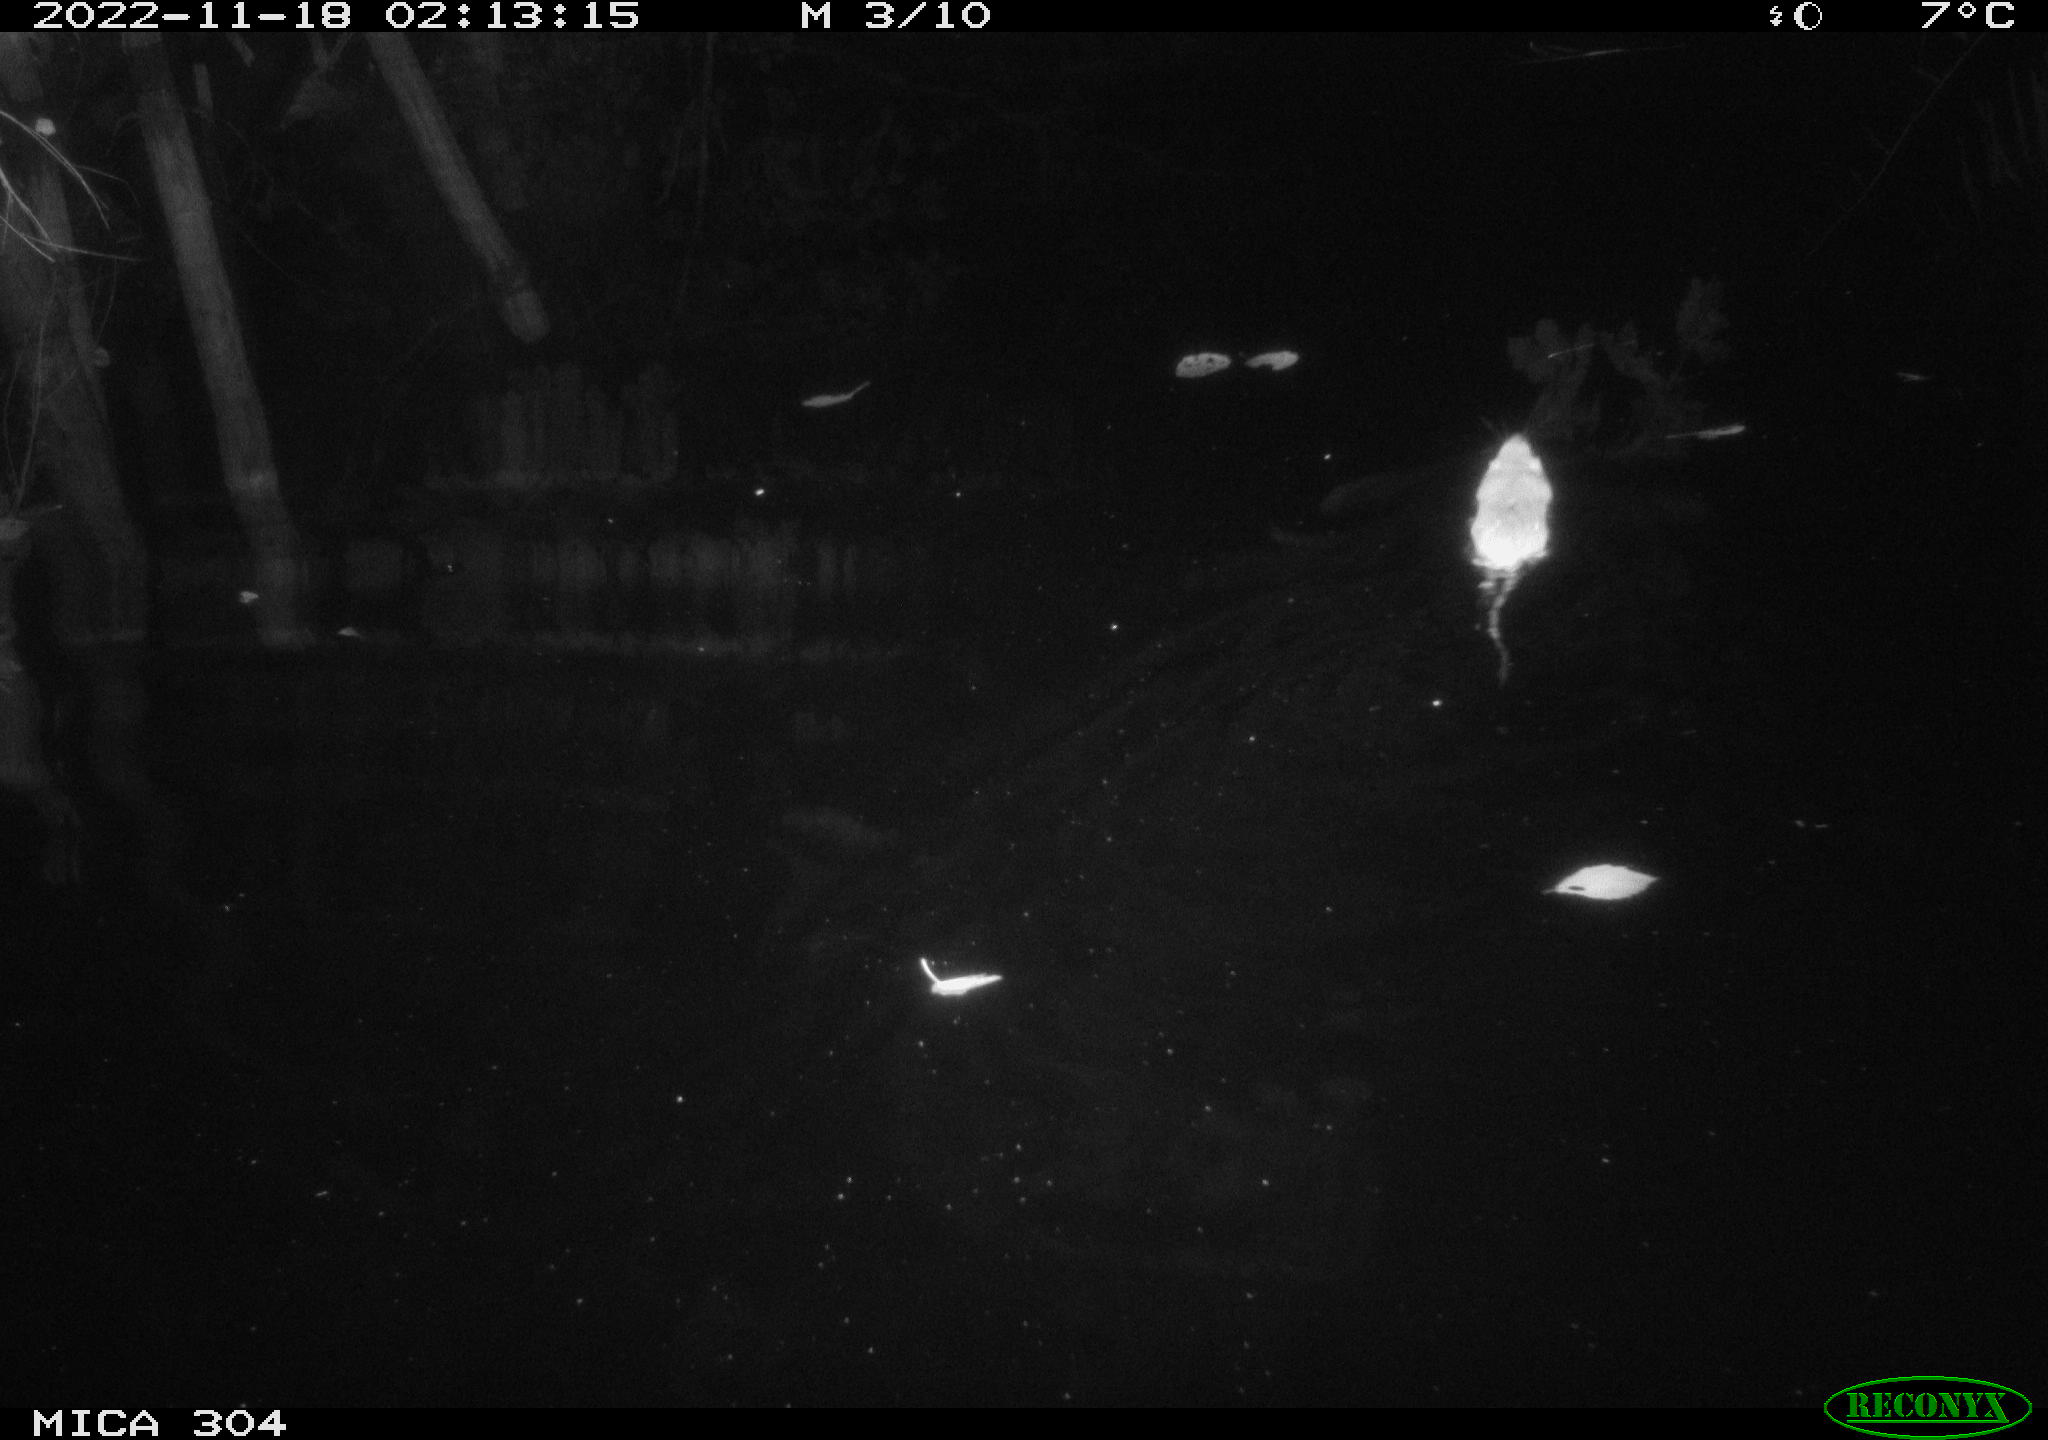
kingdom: Animalia
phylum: Chordata
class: Mammalia
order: Rodentia
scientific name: Rodentia
